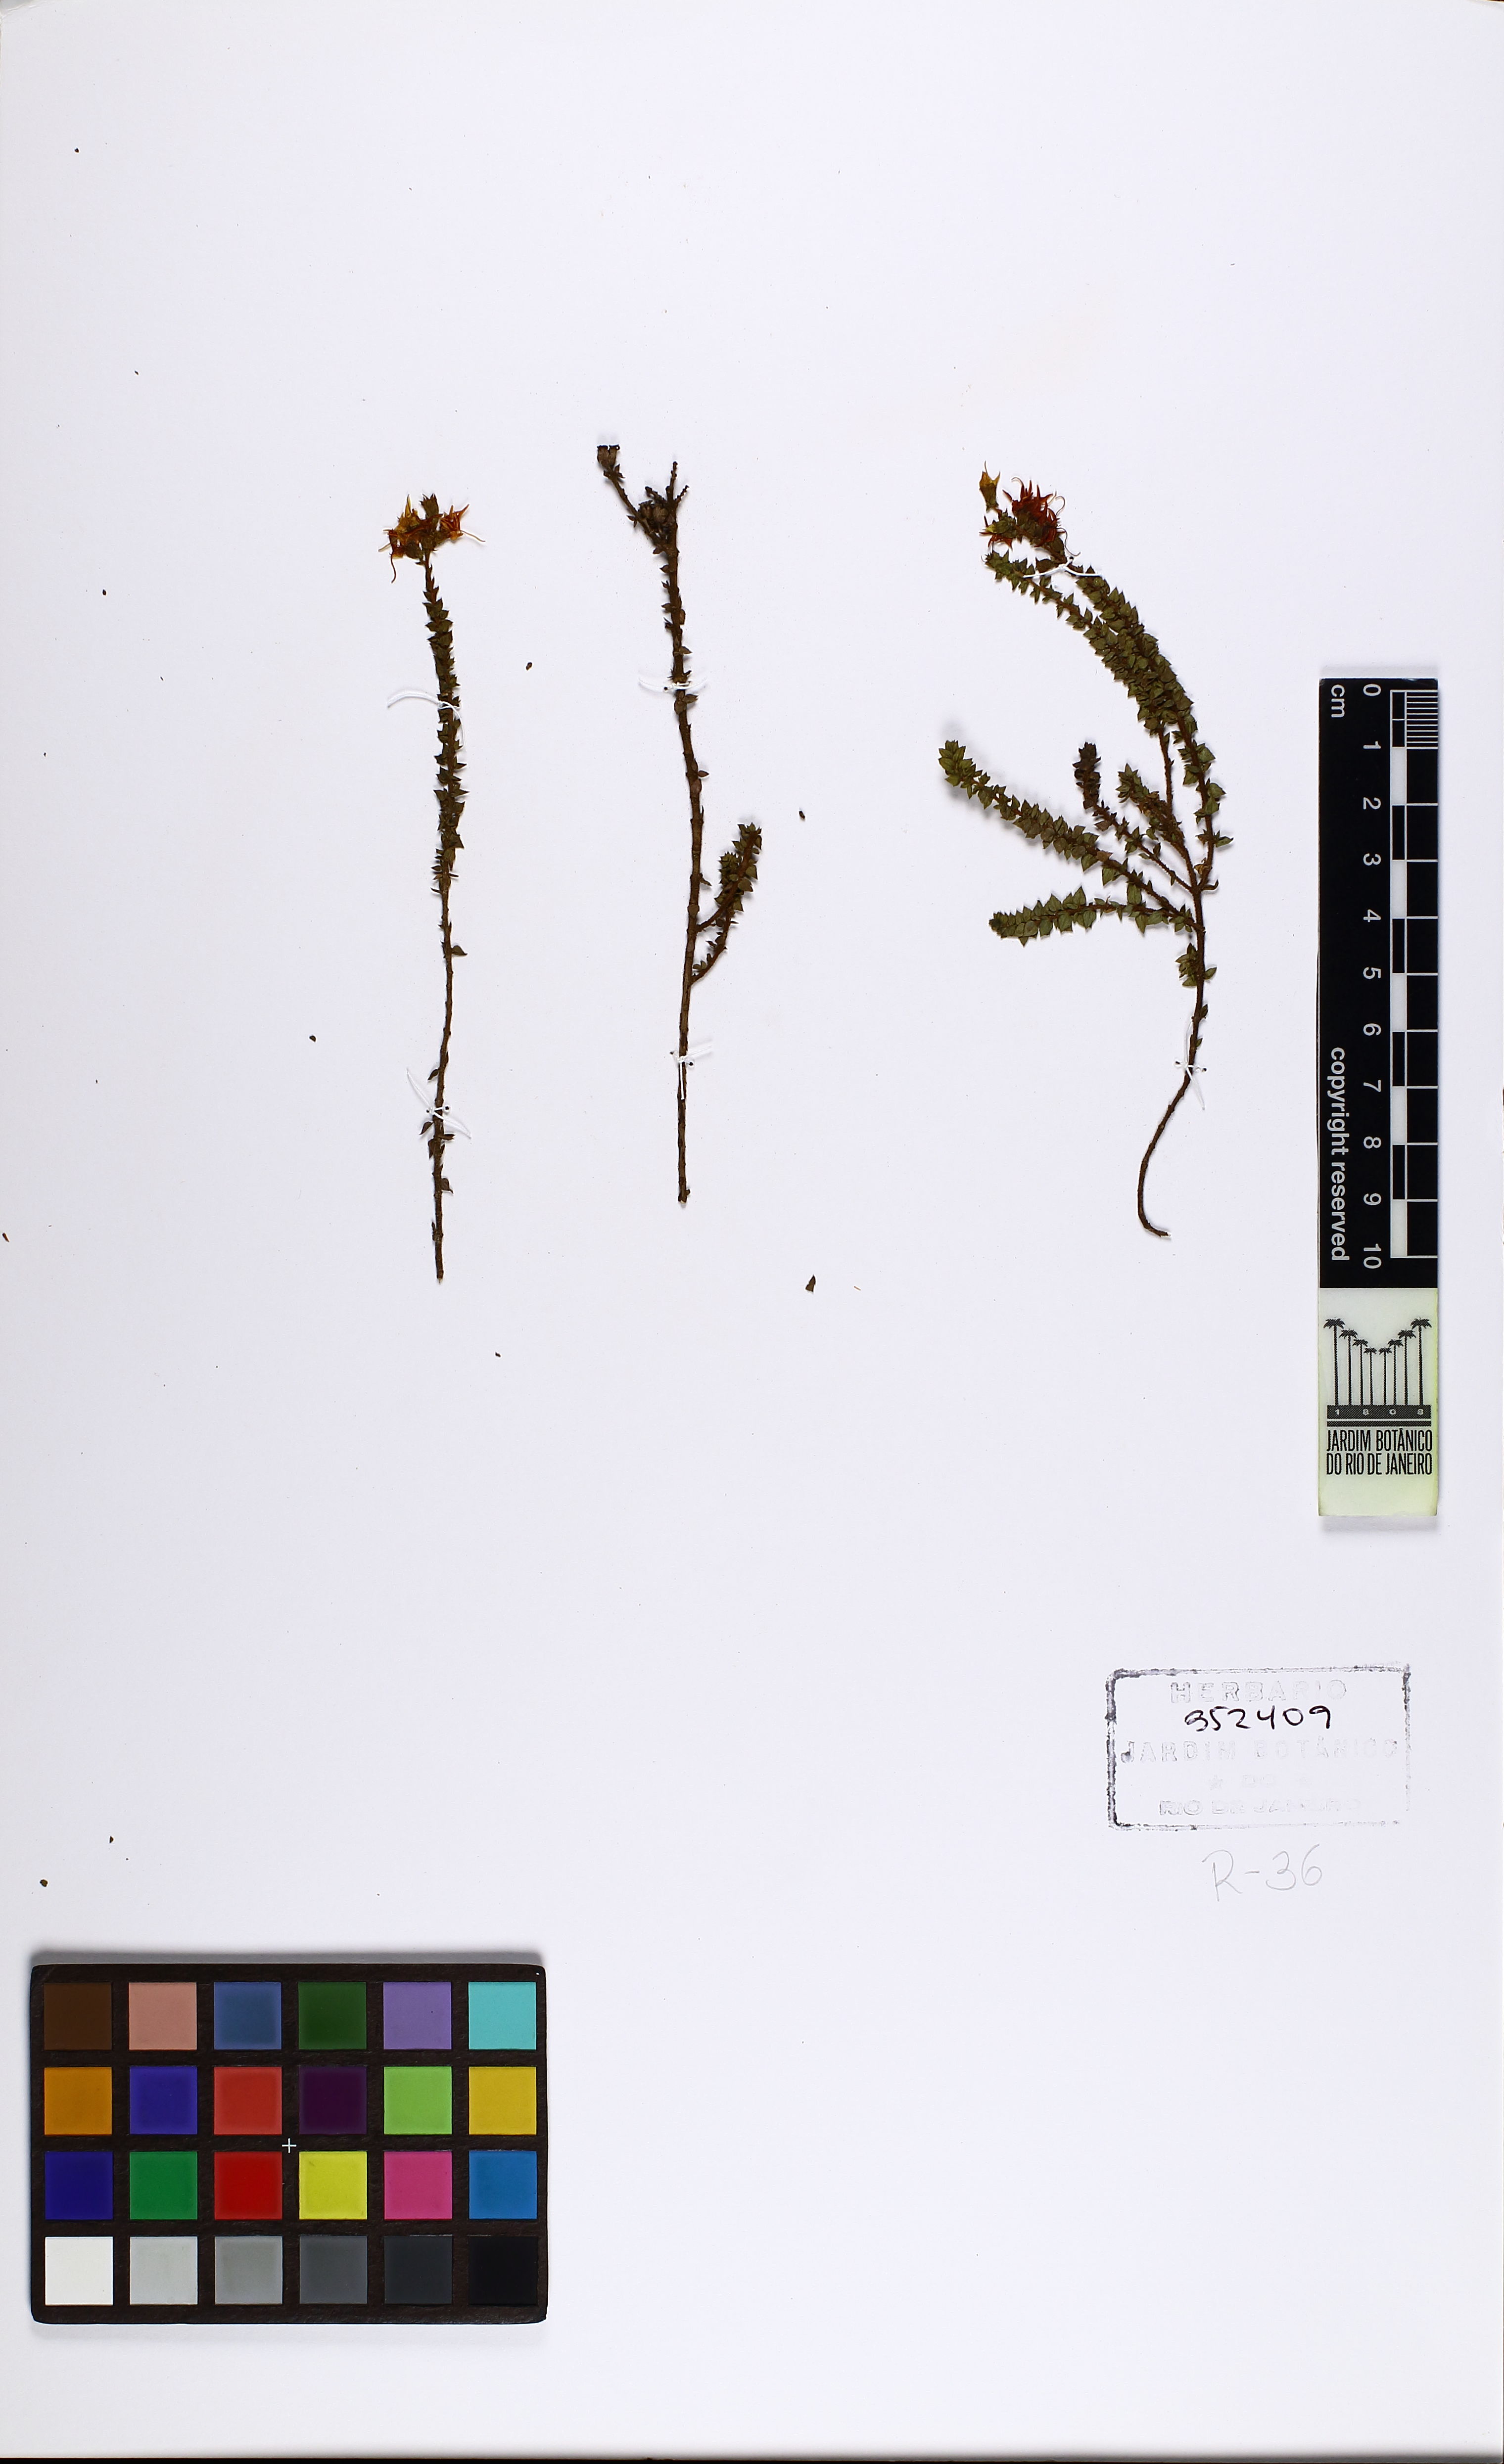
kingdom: Plantae
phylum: Tracheophyta
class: Magnoliopsida
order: Myrtales
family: Melastomataceae
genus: Cambessedesia
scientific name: Cambessedesia espora
